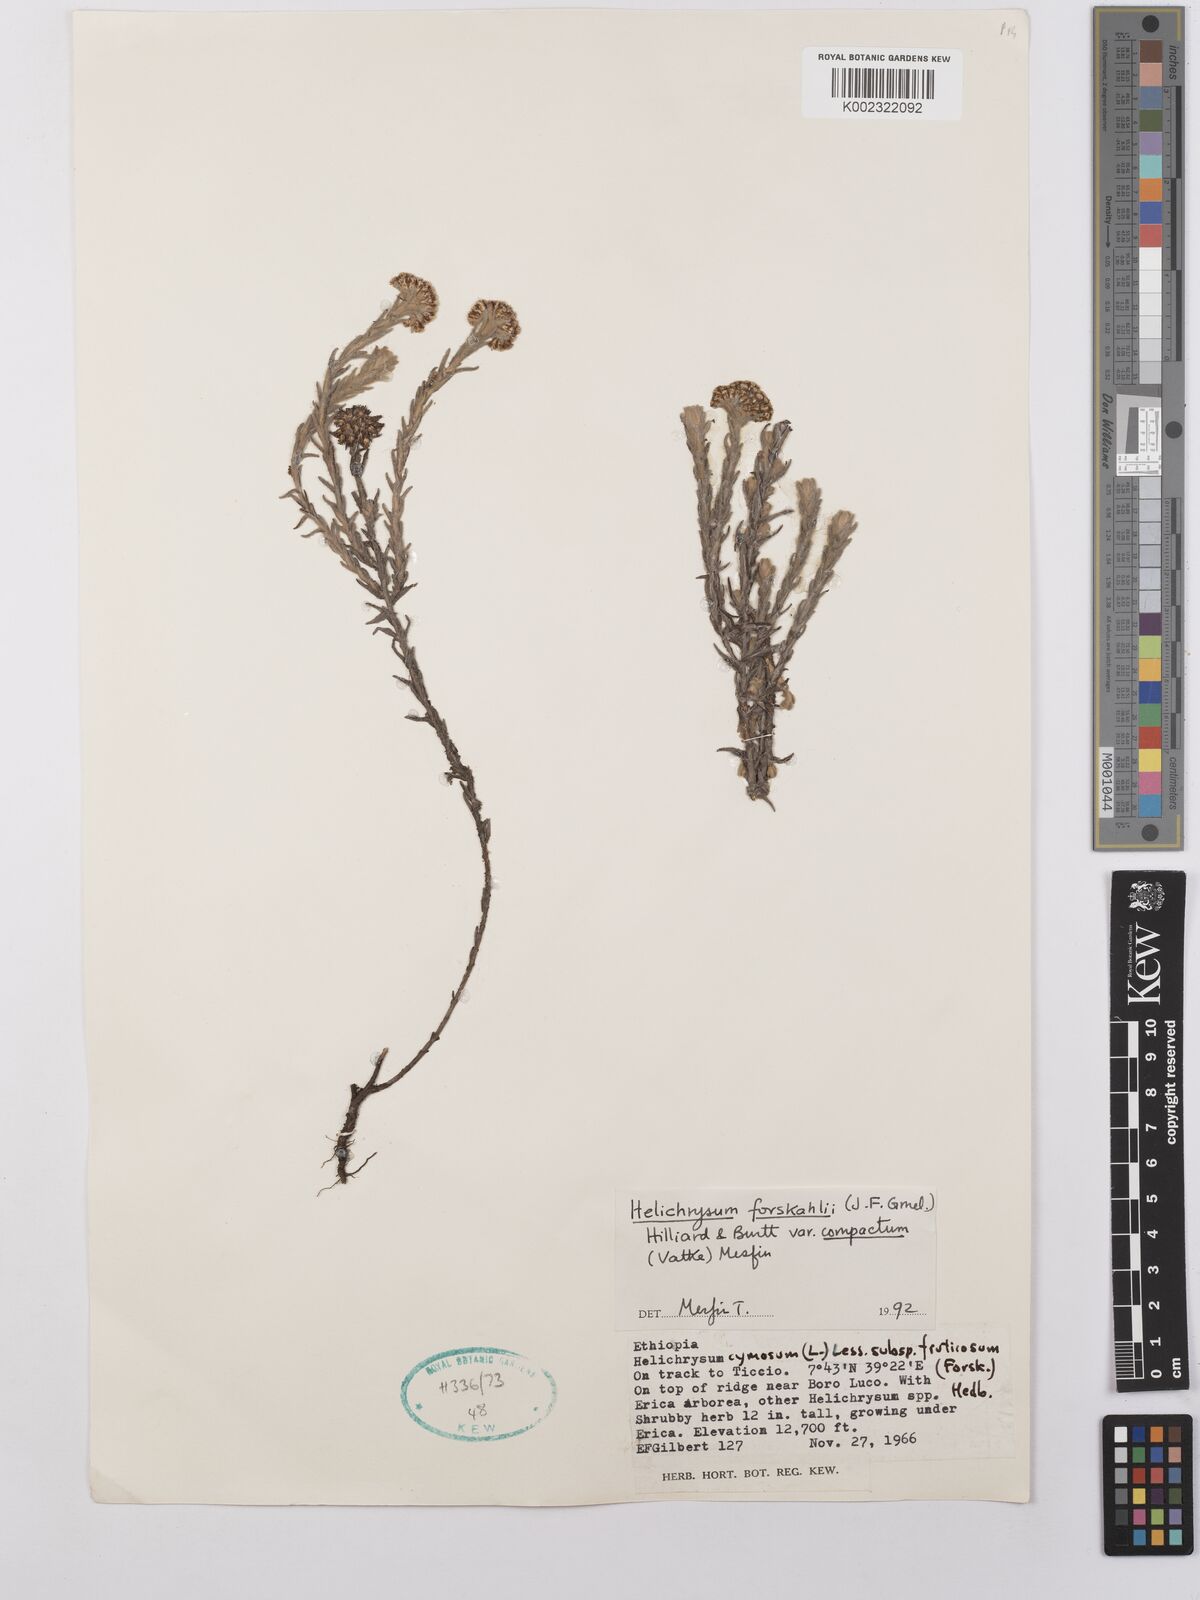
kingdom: Plantae
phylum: Tracheophyta
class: Magnoliopsida
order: Asterales
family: Asteraceae
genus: Helichrysum
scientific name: Helichrysum forskahlii
